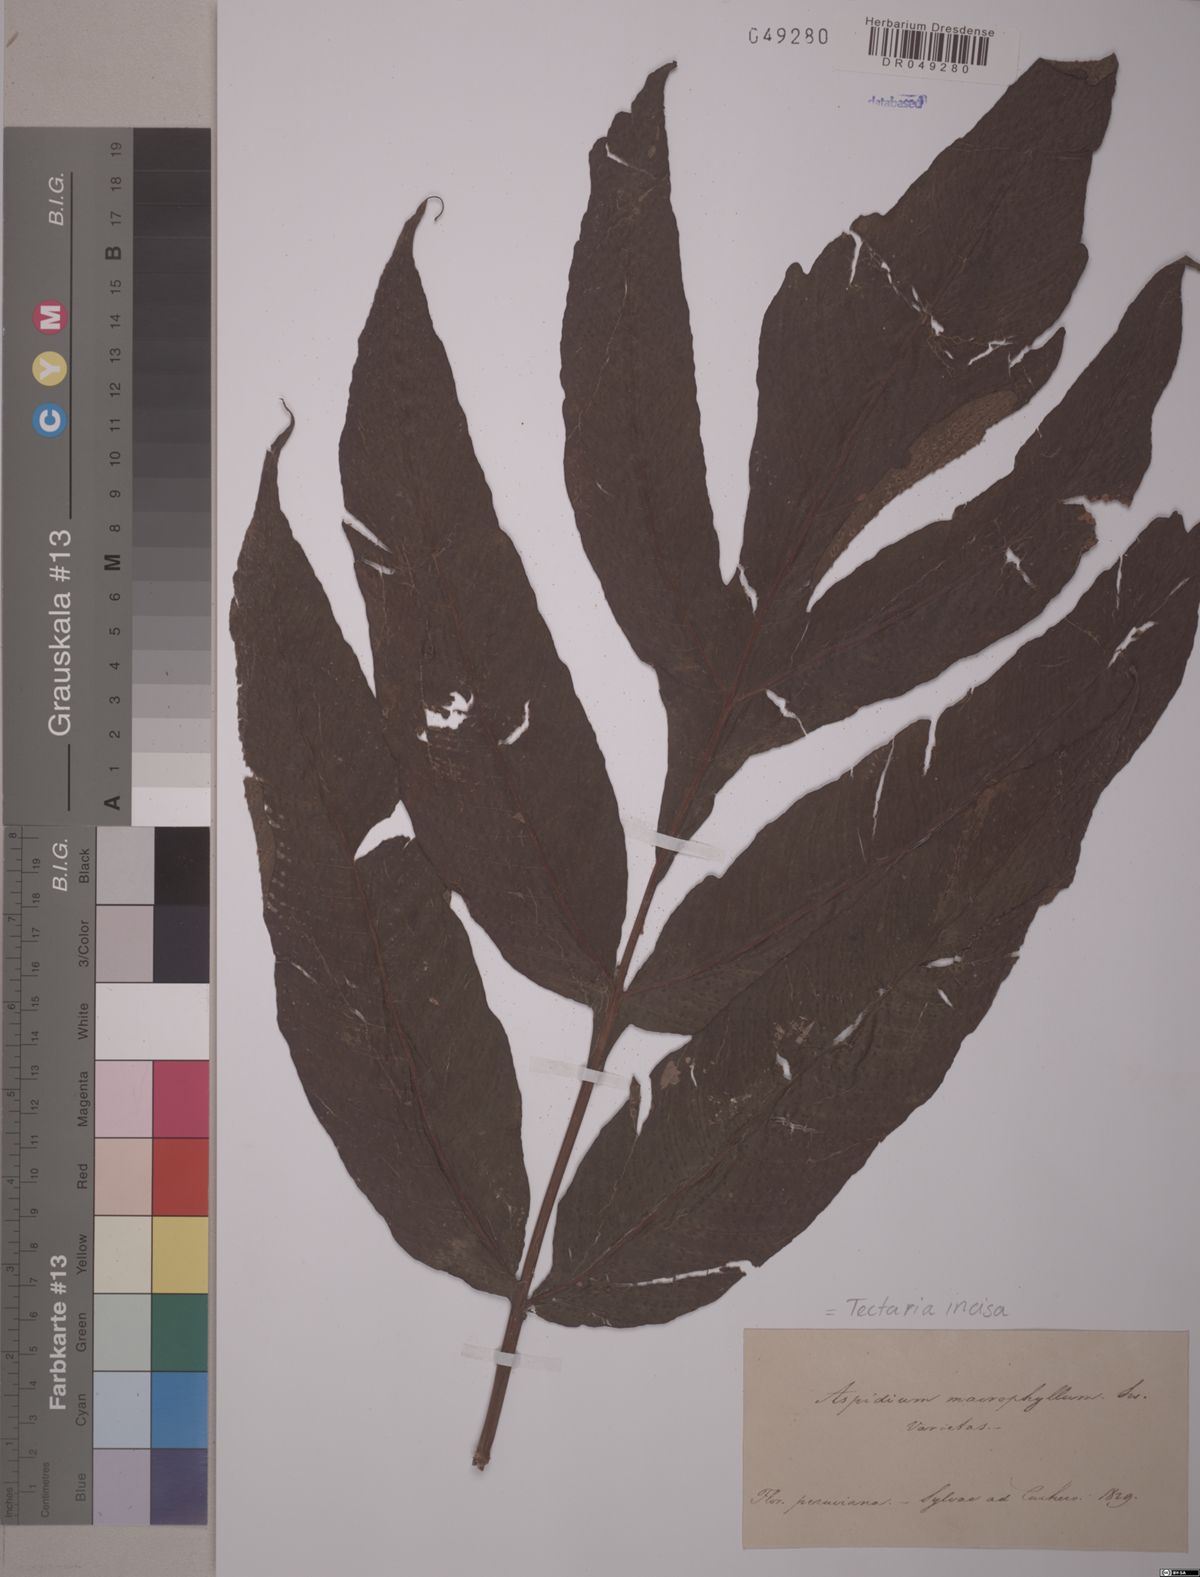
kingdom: Plantae
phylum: Tracheophyta
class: Polypodiopsida
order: Polypodiales
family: Tectariaceae
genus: Tectaria
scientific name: Tectaria kunzei
